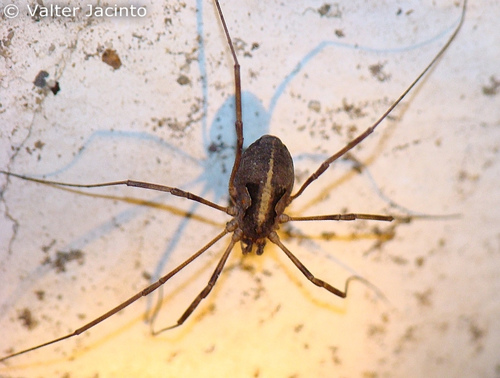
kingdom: Animalia
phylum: Arthropoda
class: Arachnida
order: Opiliones
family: Phalangiidae
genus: Metaphalangium
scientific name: Metaphalangium
